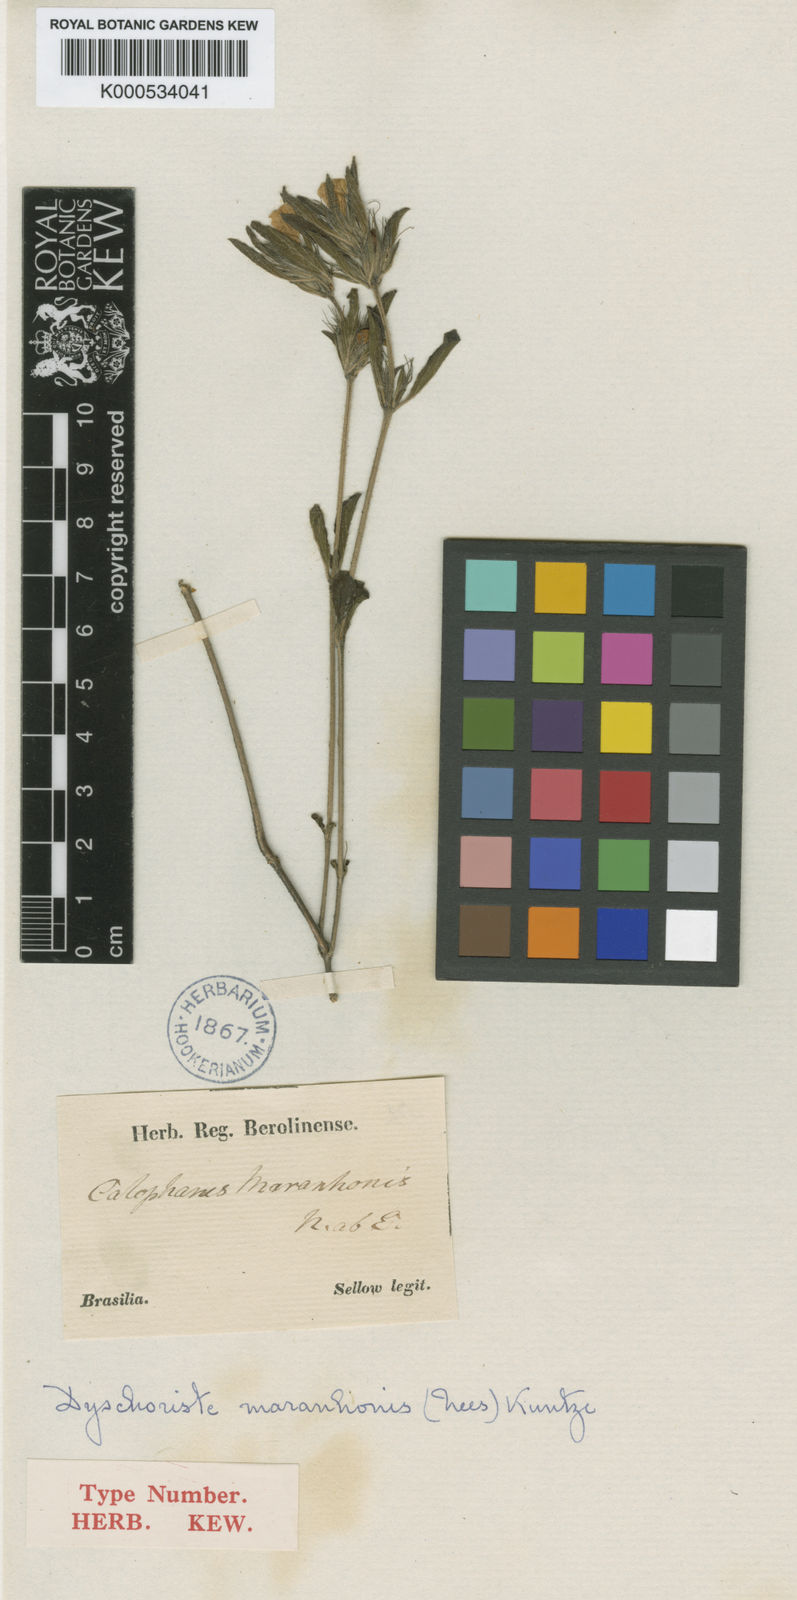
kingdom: Plantae
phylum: Tracheophyta
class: Magnoliopsida
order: Lamiales
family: Acanthaceae
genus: Dyschoriste
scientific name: Dyschoriste maranhonis
